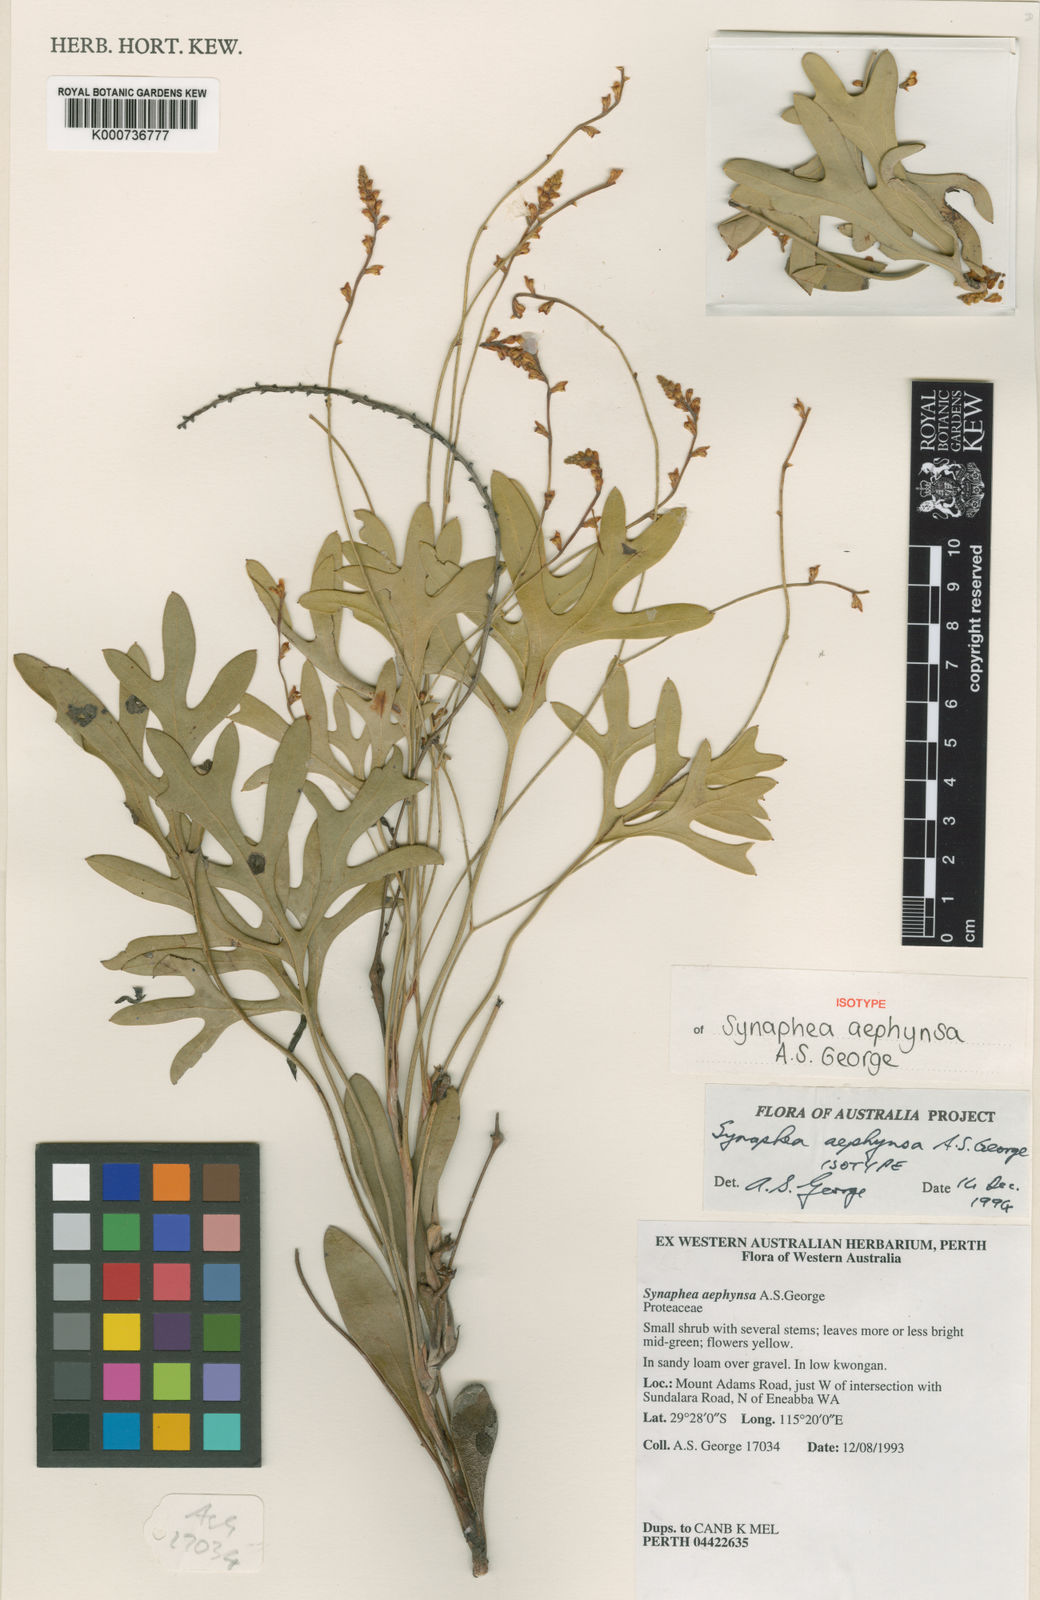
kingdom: Plantae
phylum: Tracheophyta
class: Magnoliopsida
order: Proteales
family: Proteaceae
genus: Synaphea
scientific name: Synaphea aephynsa
